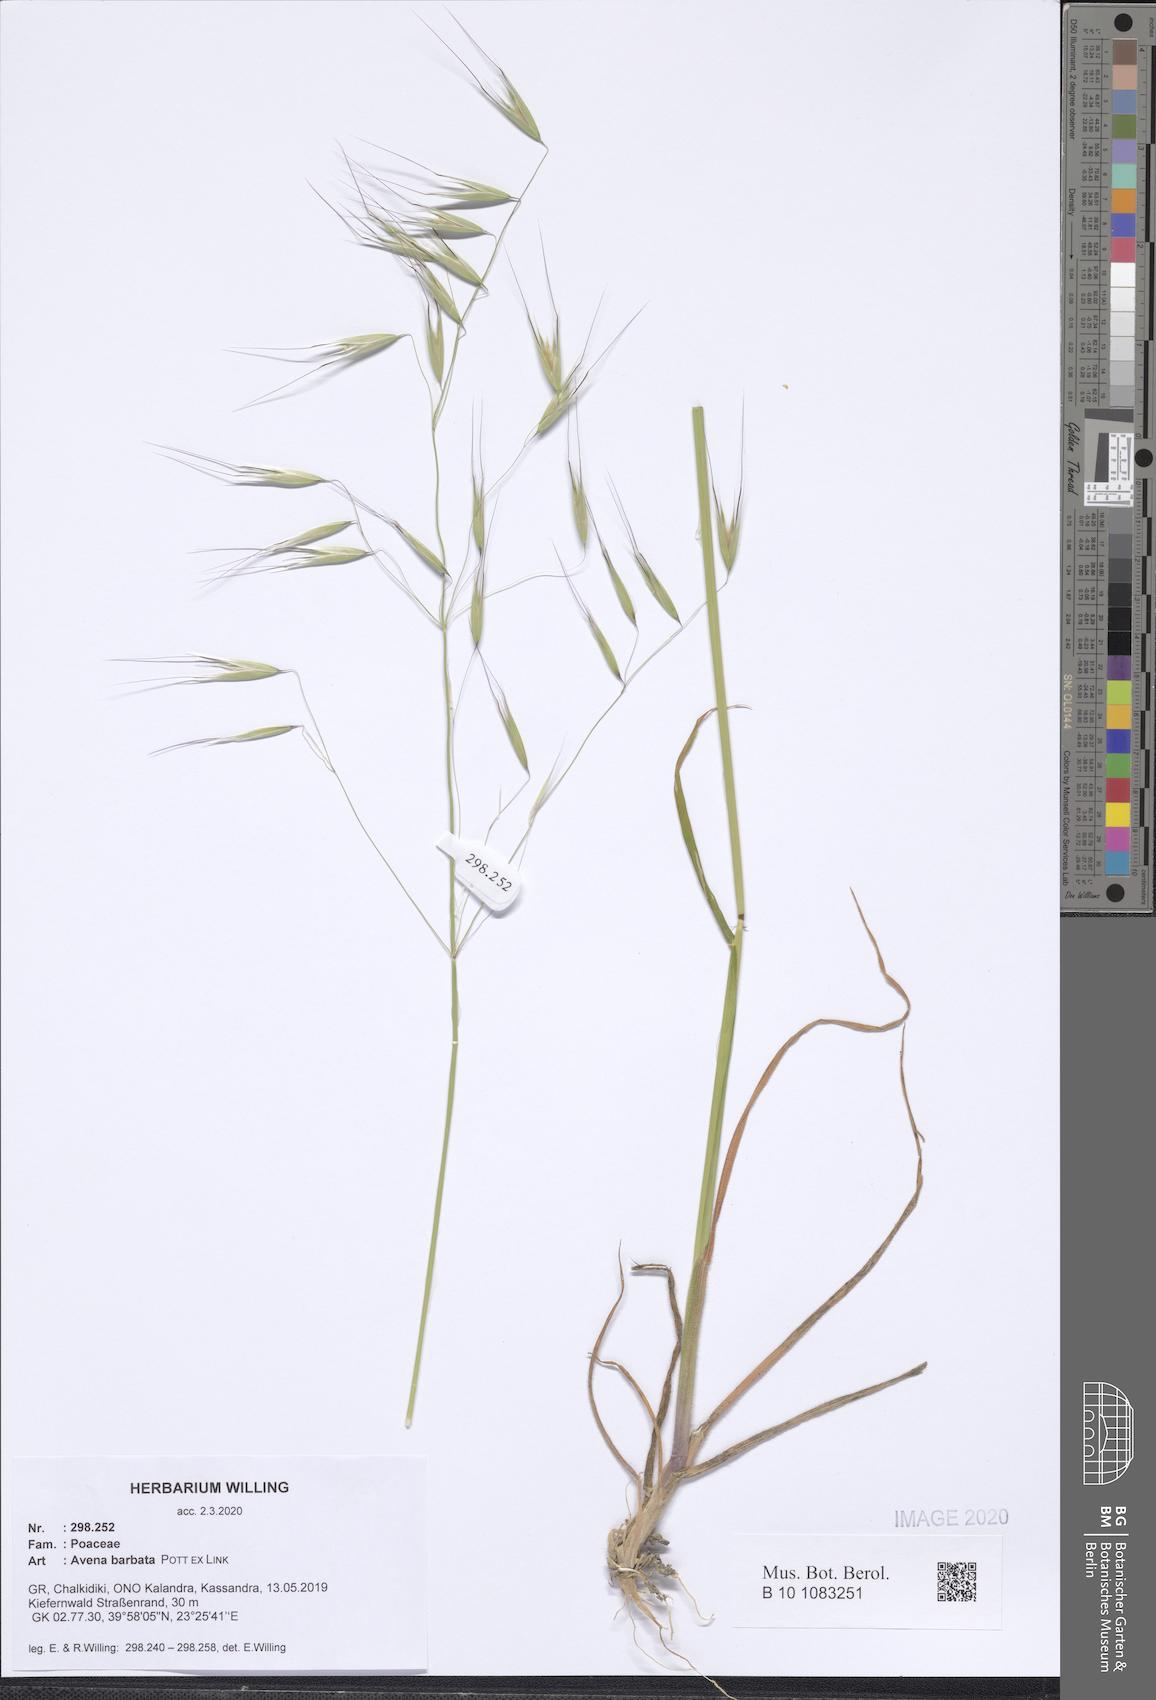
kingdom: Plantae
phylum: Tracheophyta
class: Liliopsida
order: Poales
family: Poaceae
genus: Avena
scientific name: Avena barbata
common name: Slender oat
